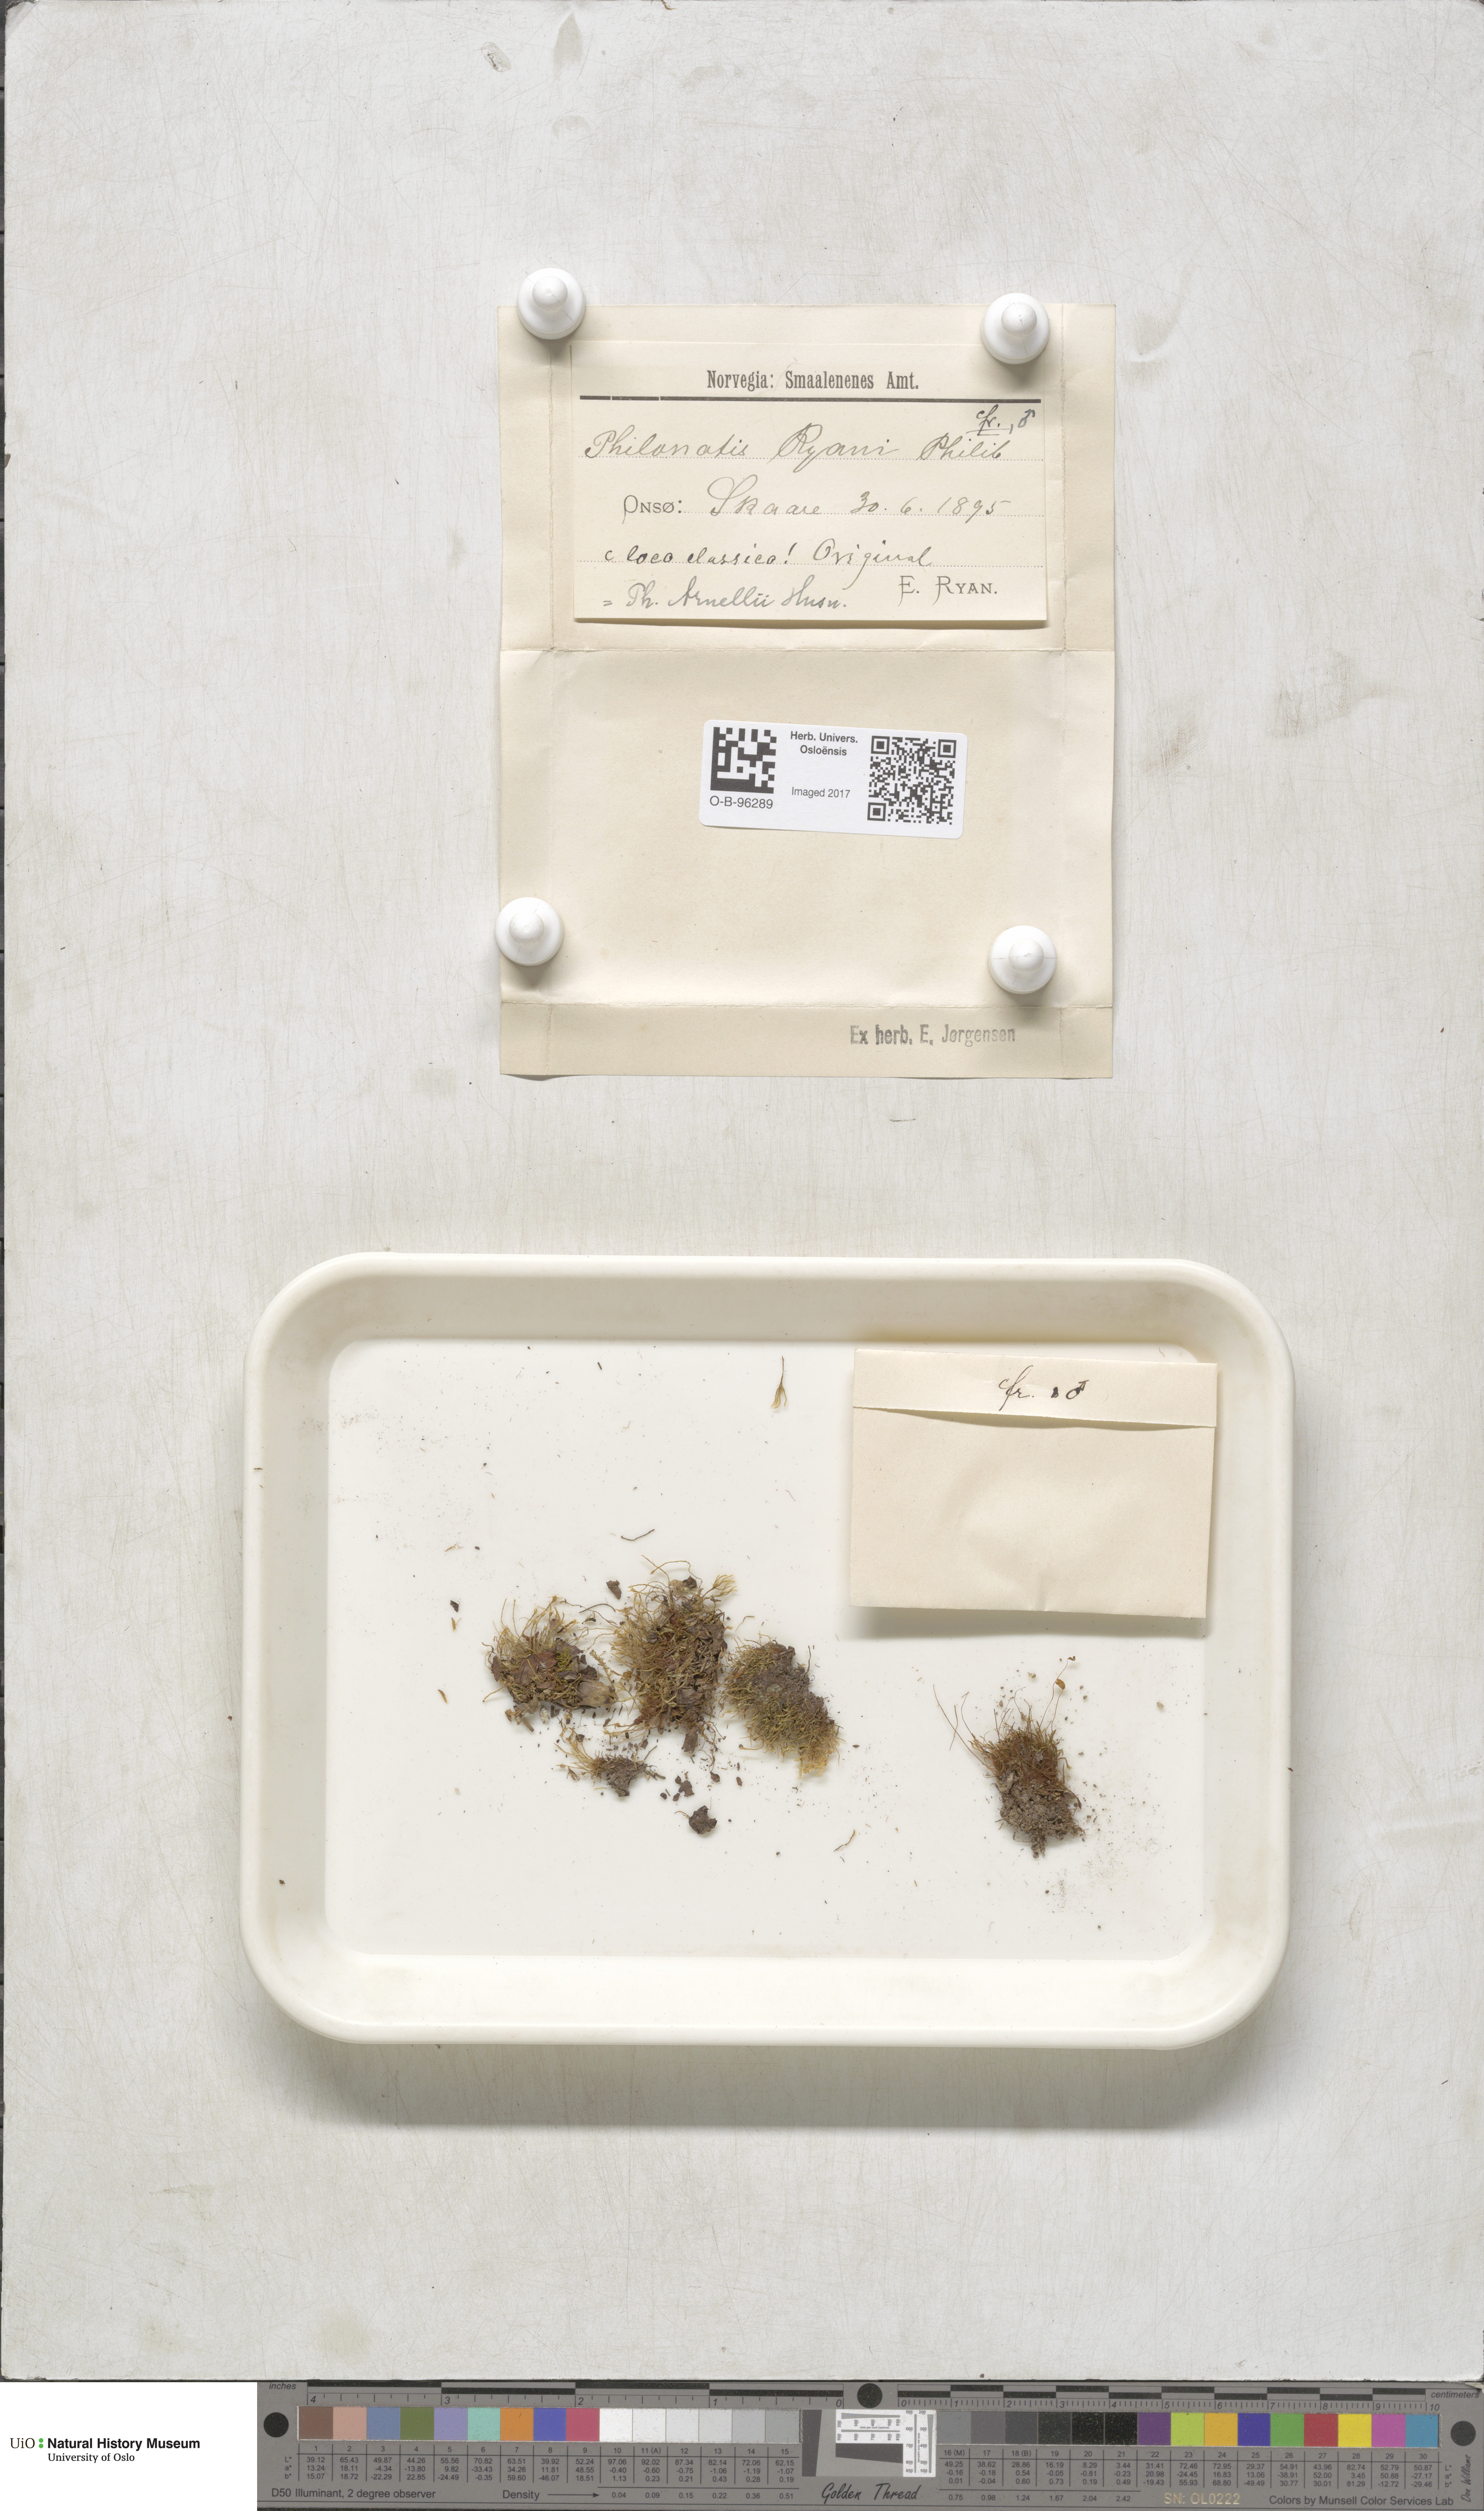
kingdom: Plantae
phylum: Bryophyta
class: Bryopsida
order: Bartramiales
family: Bartramiaceae
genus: Philonotis
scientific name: Philonotis capillaris
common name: Arnell's apple-moss
